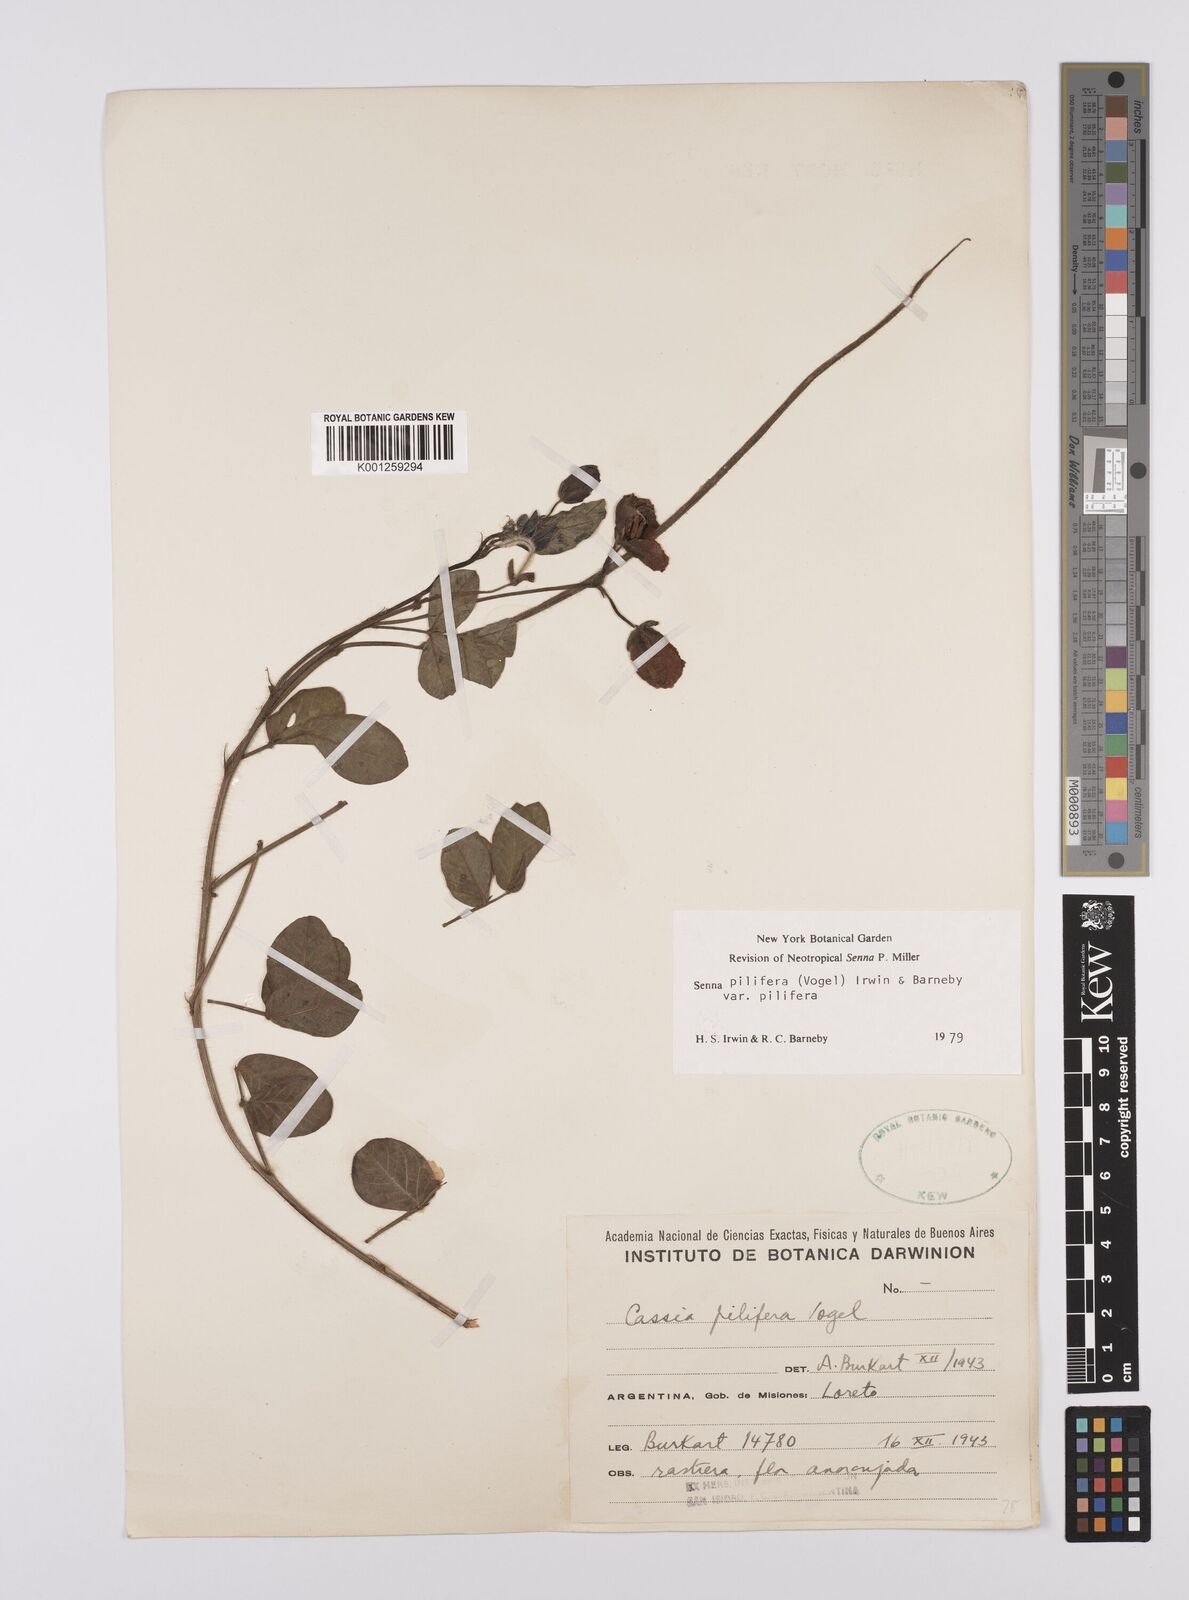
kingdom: Plantae
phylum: Tracheophyta
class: Magnoliopsida
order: Fabales
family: Fabaceae
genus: Senna
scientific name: Senna pilifera
